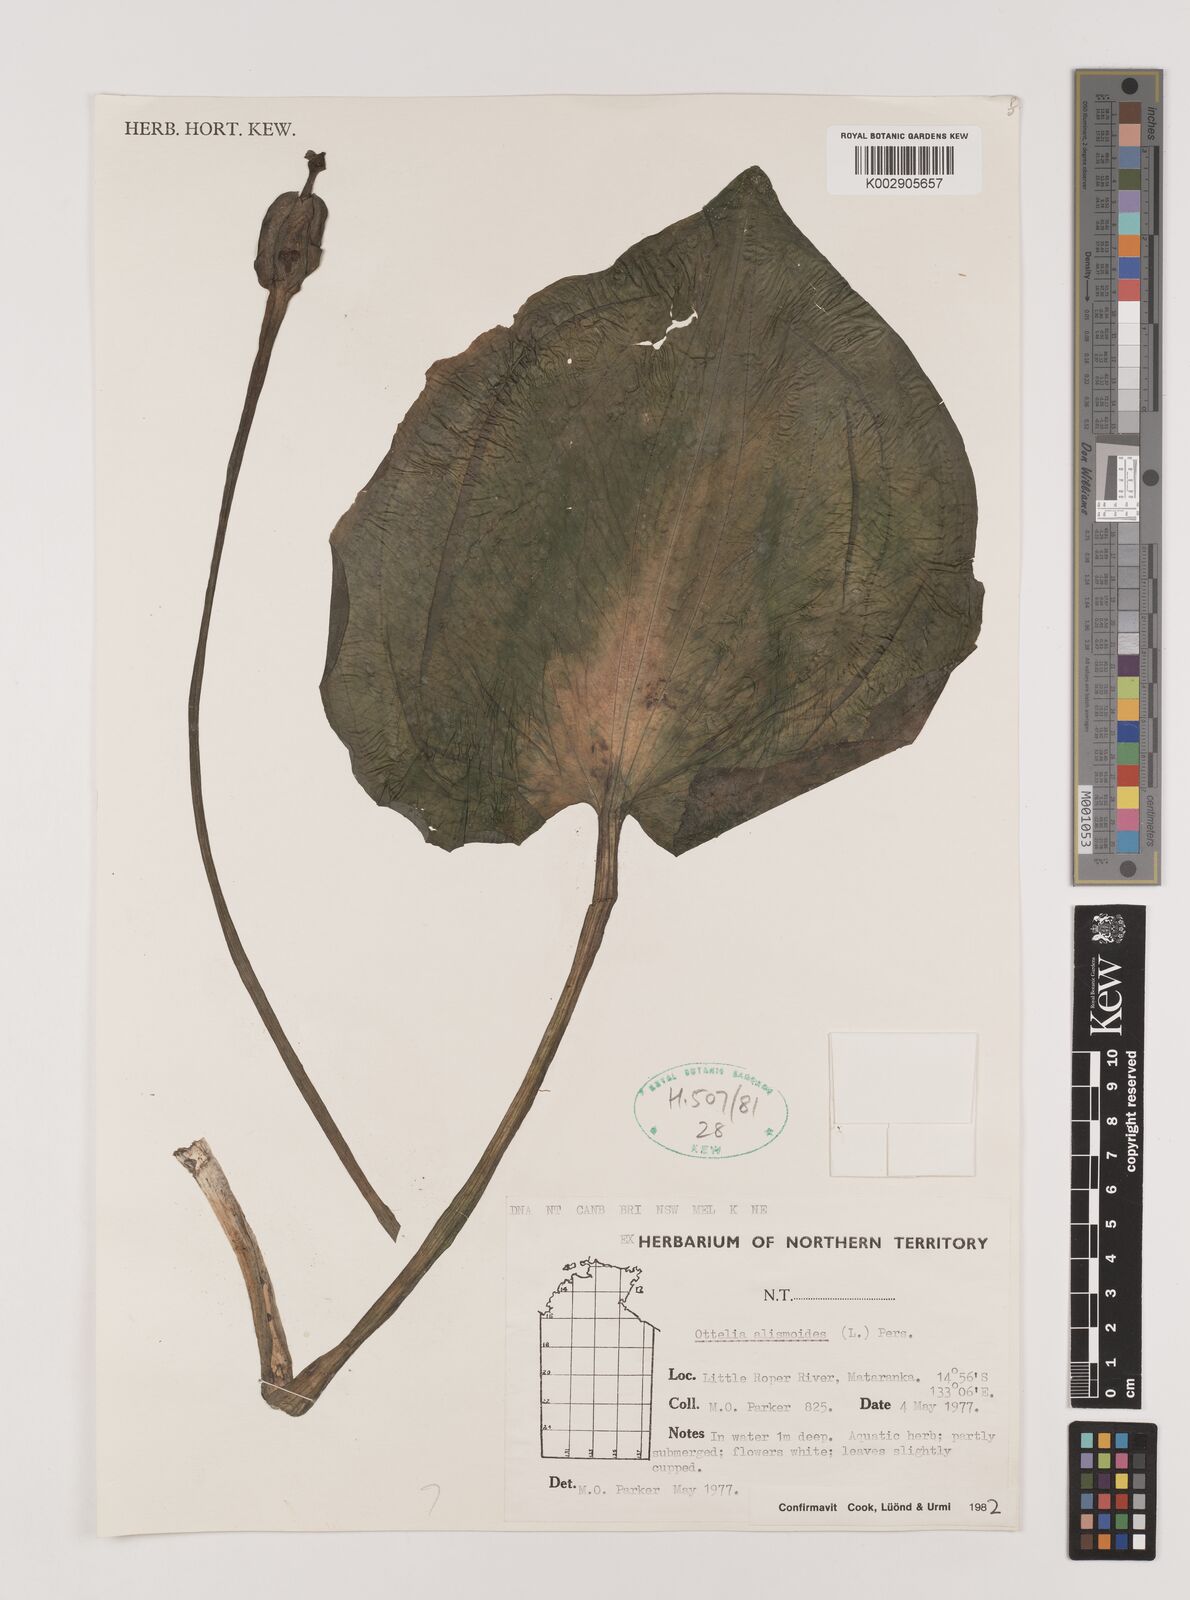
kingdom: Plantae
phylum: Tracheophyta
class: Liliopsida
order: Alismatales
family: Hydrocharitaceae
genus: Ottelia
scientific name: Ottelia alismoides
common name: Duck-lettuce
